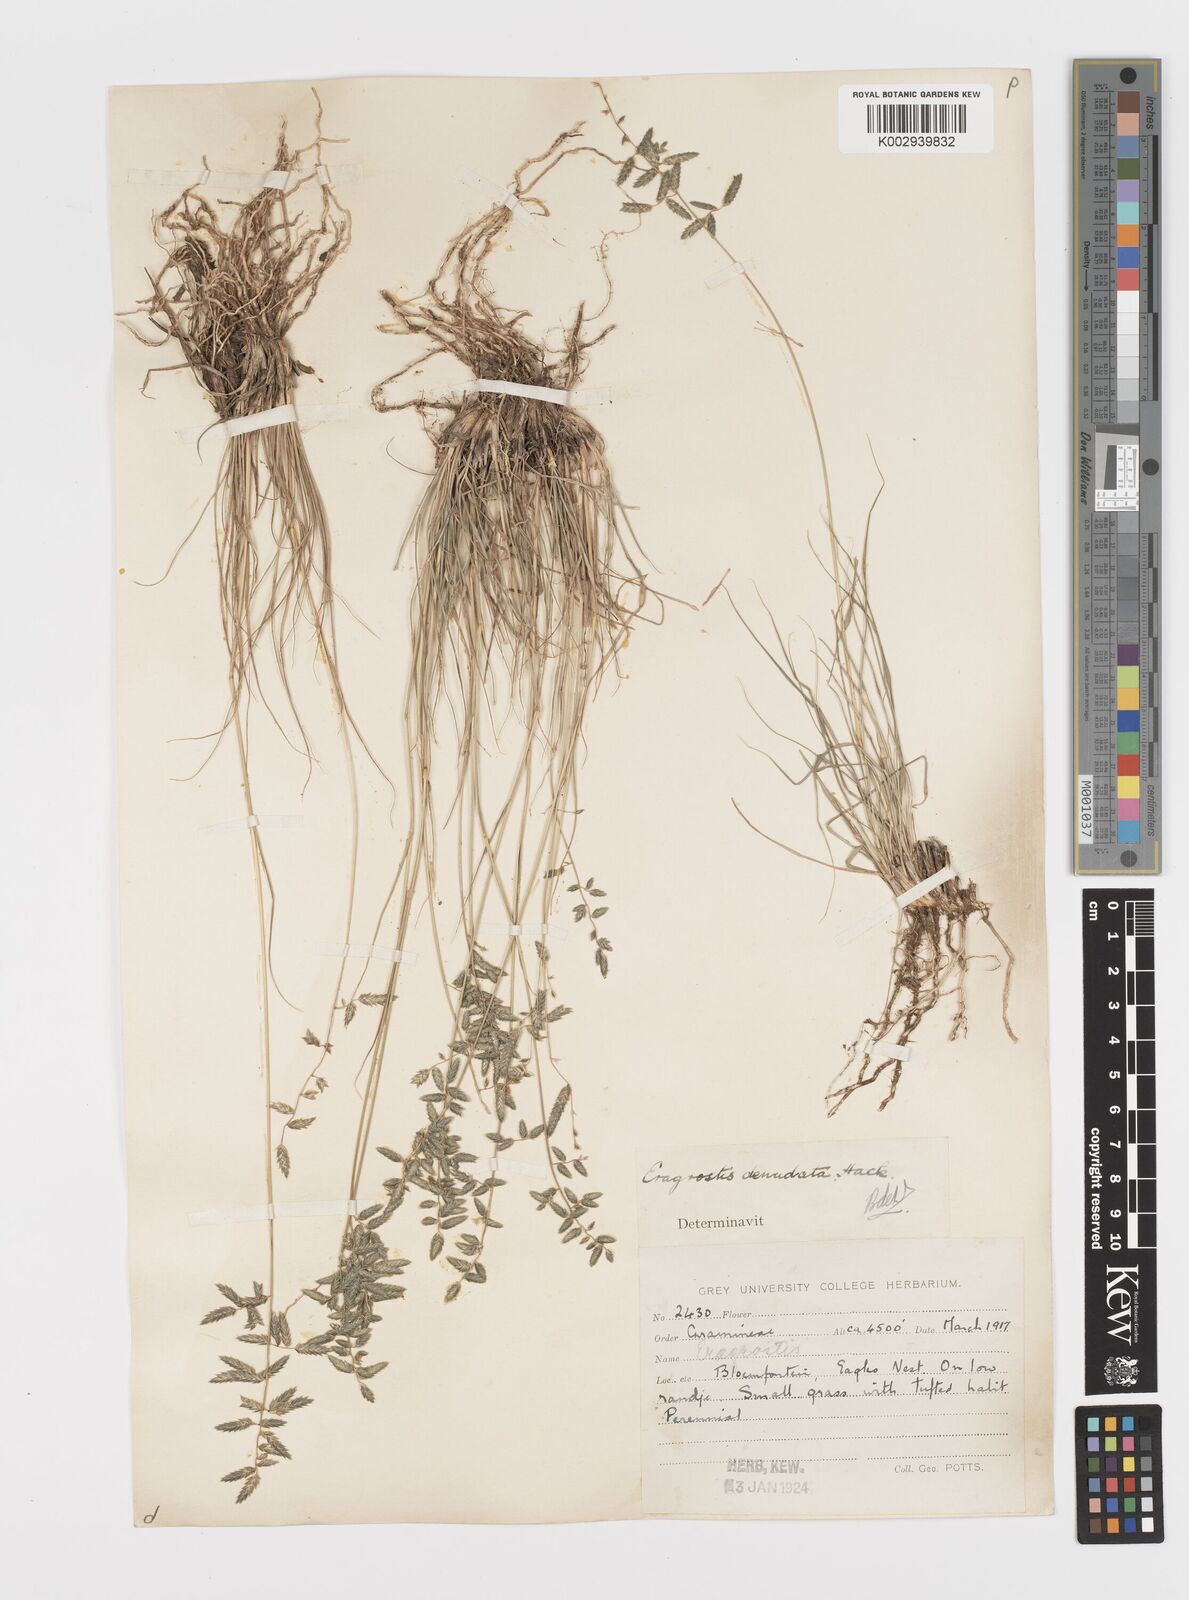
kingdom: Plantae
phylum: Tracheophyta
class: Liliopsida
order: Poales
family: Poaceae
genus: Eragrostis
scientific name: Eragrostis nindensis
